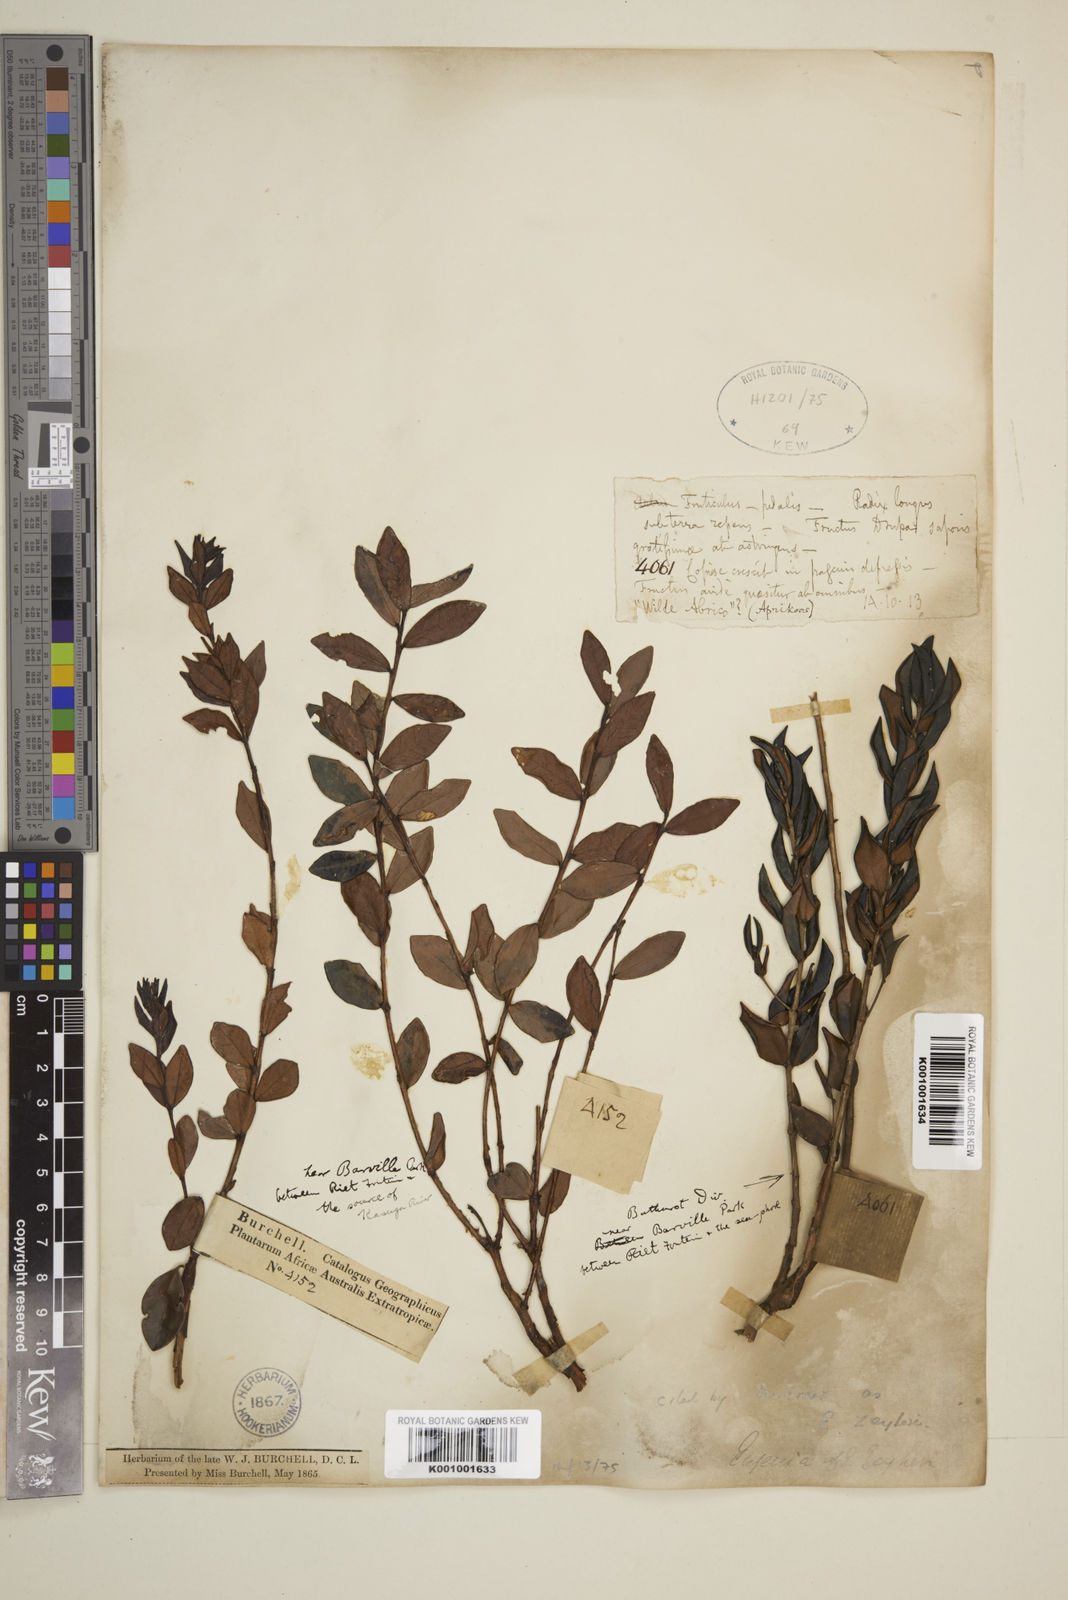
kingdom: Plantae
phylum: Tracheophyta
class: Magnoliopsida
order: Myrtales
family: Myrtaceae
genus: Eugenia
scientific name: Eugenia zeyheri
